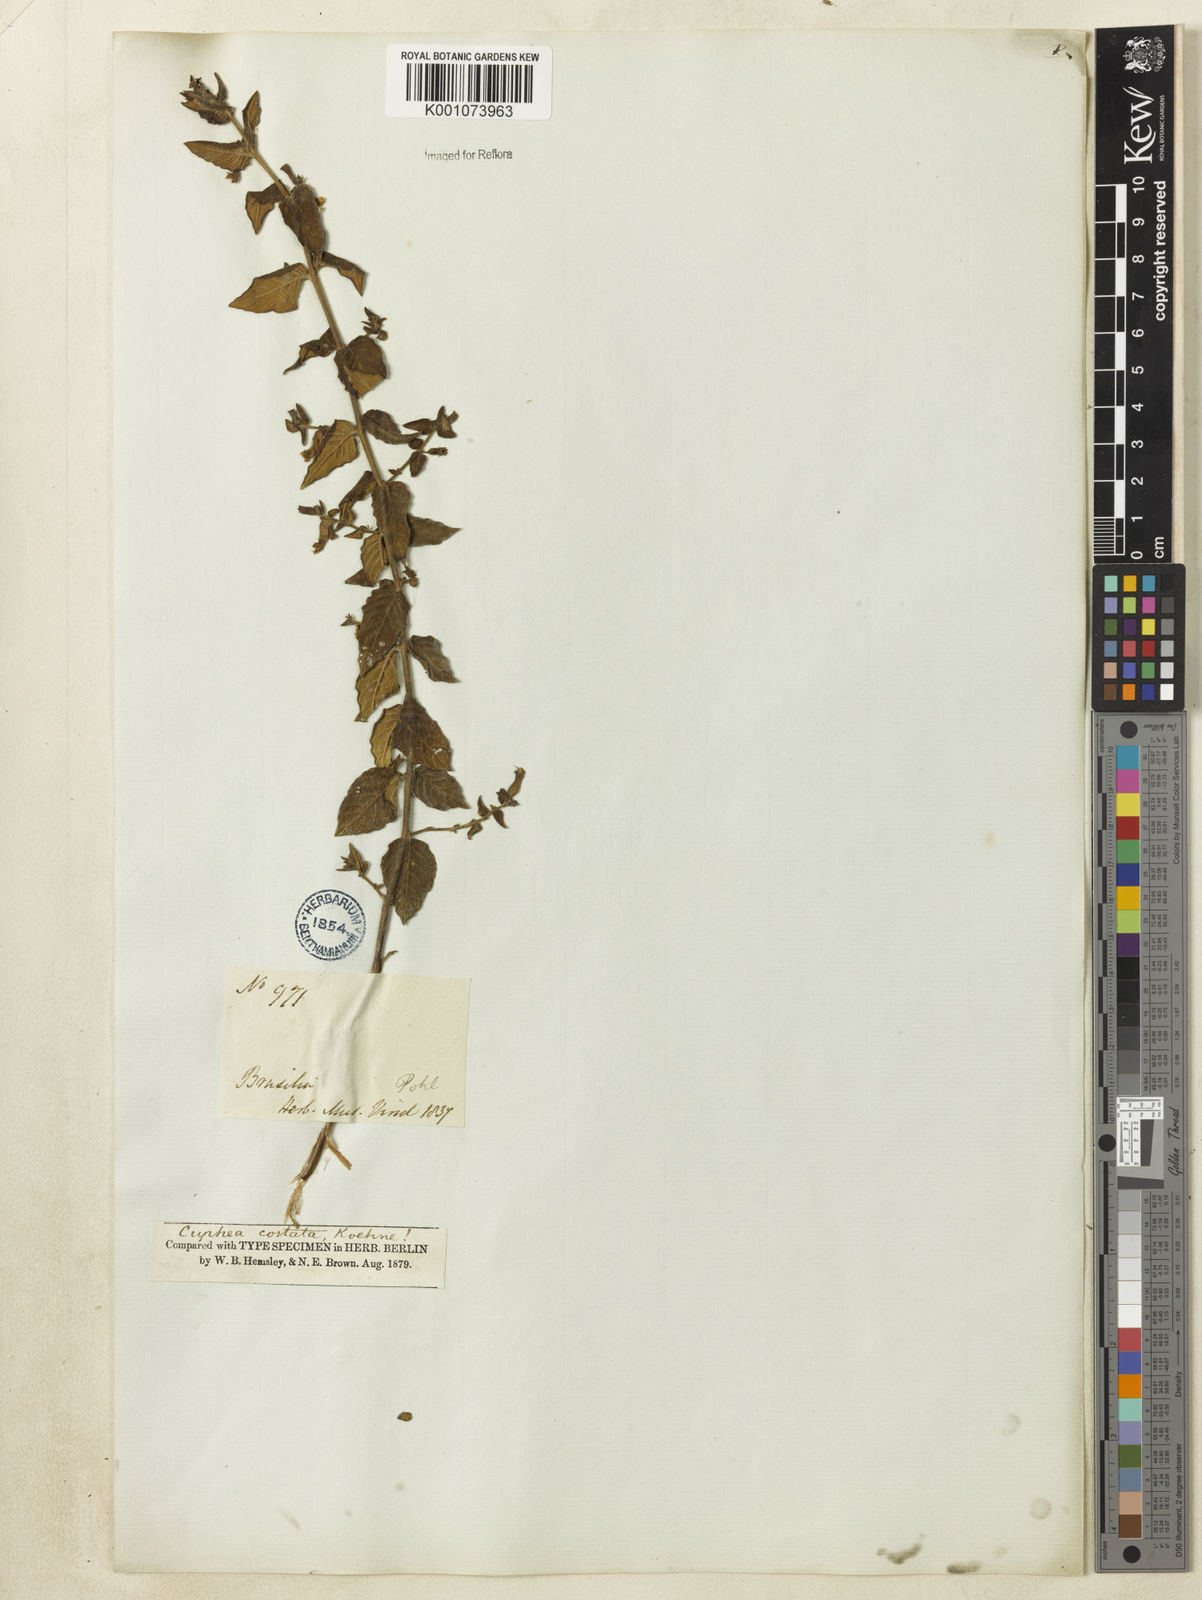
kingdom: Plantae
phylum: Tracheophyta
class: Magnoliopsida
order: Myrtales
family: Lythraceae
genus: Cuphea
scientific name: Cuphea sessiliflora
